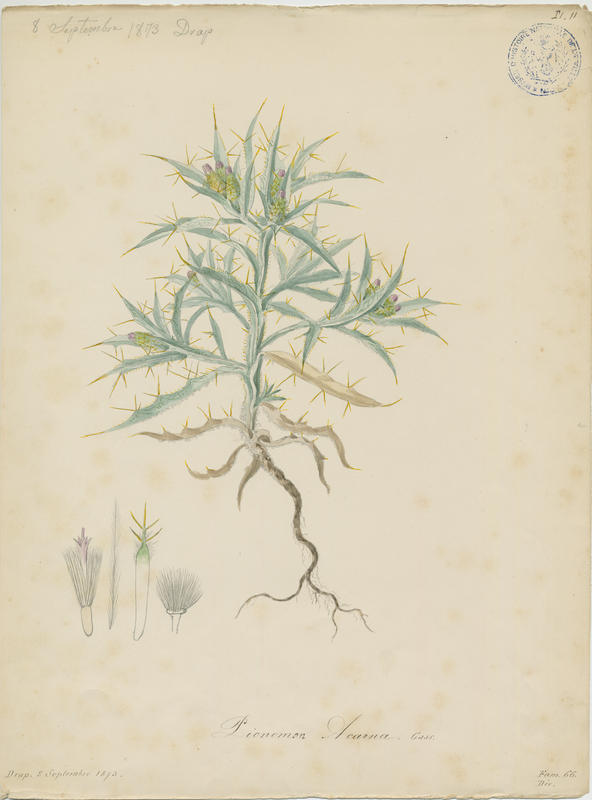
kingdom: Plantae
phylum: Tracheophyta
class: Magnoliopsida
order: Asterales
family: Asteraceae
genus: Picnomon
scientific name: Picnomon acarna
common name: Soldier thistle
